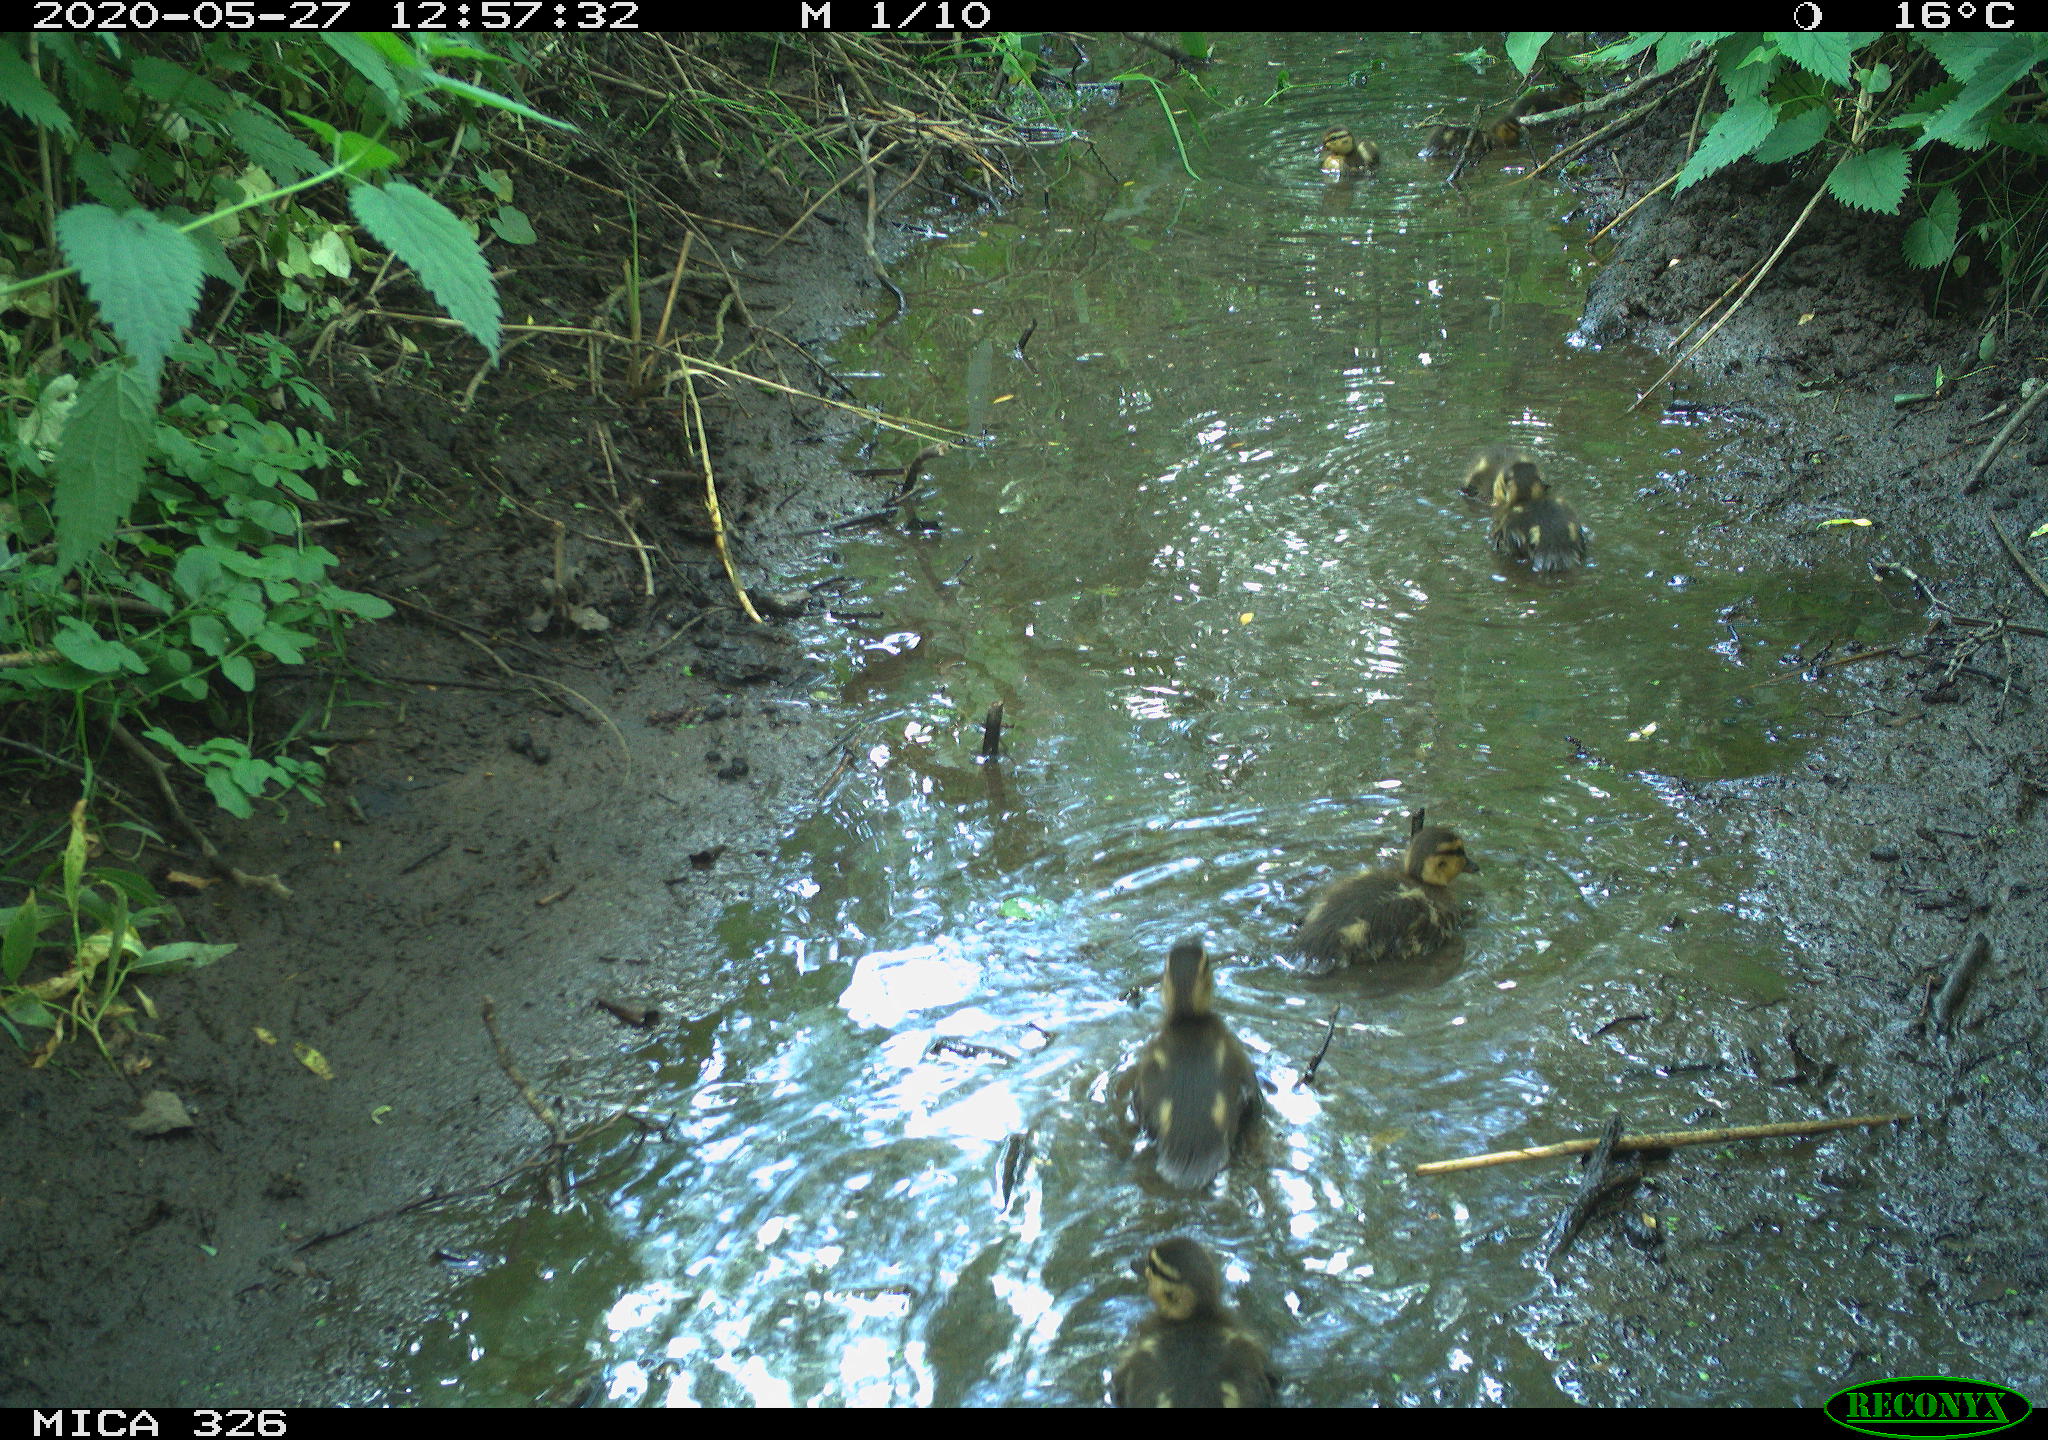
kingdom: Animalia
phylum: Chordata
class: Aves
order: Anseriformes
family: Anatidae
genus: Anas
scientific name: Anas platyrhynchos
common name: Mallard
